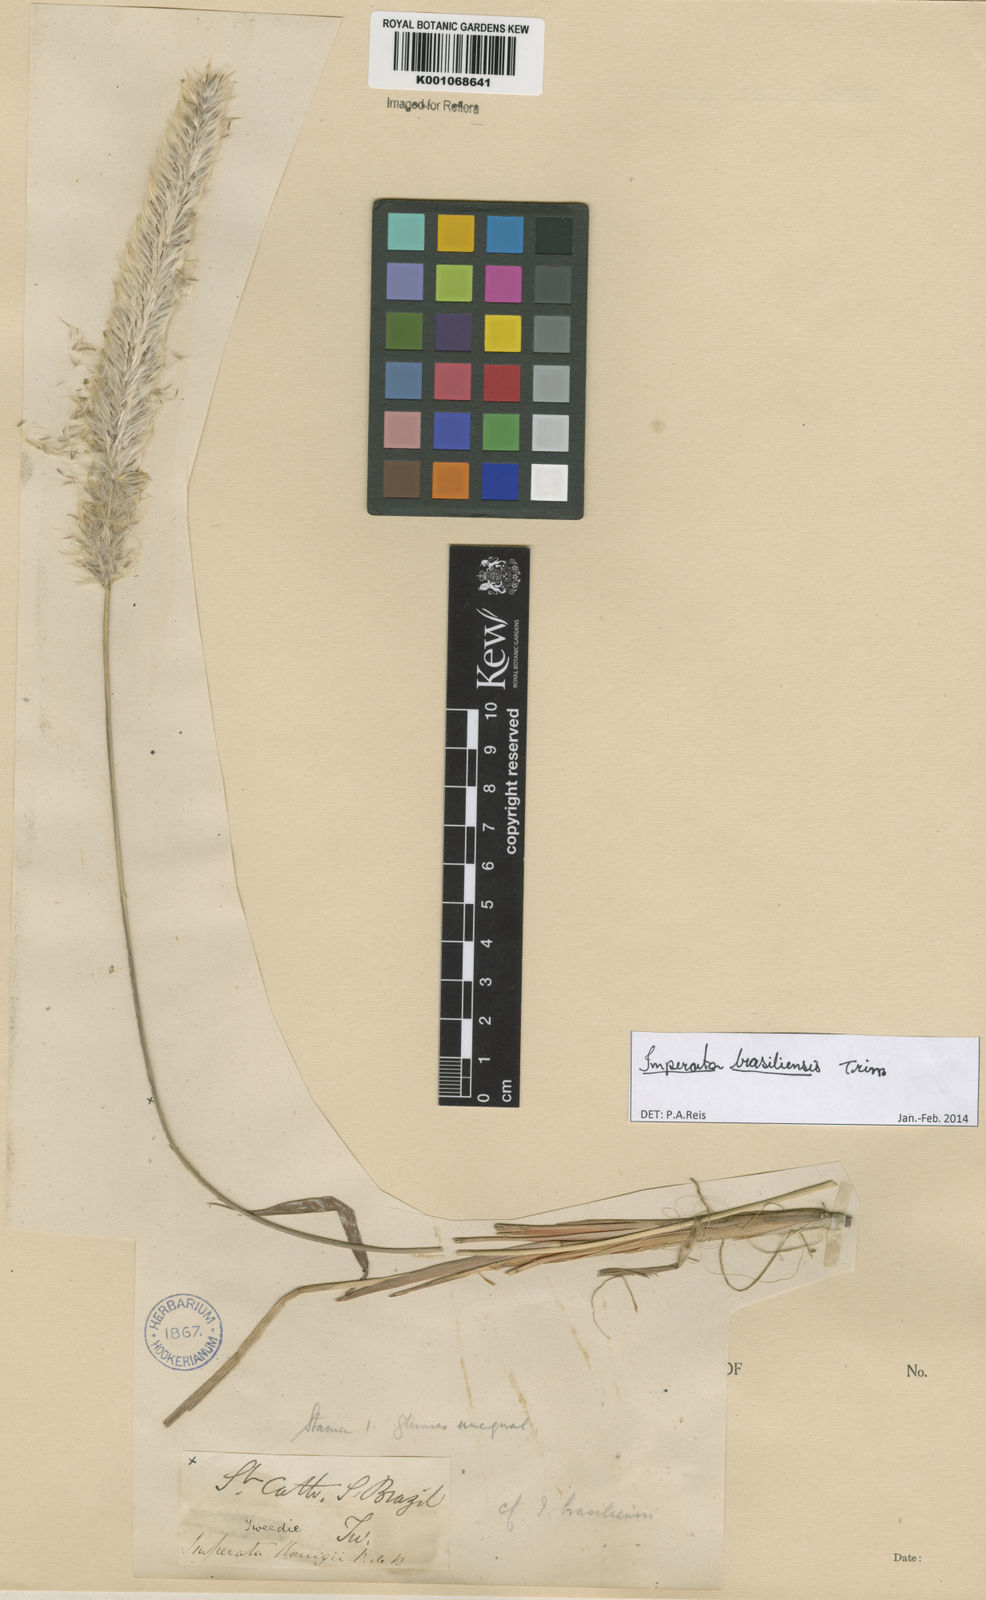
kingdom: Plantae
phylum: Tracheophyta
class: Liliopsida
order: Poales
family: Poaceae
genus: Imperata
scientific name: Imperata brasiliensis
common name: Brazilian satintail
